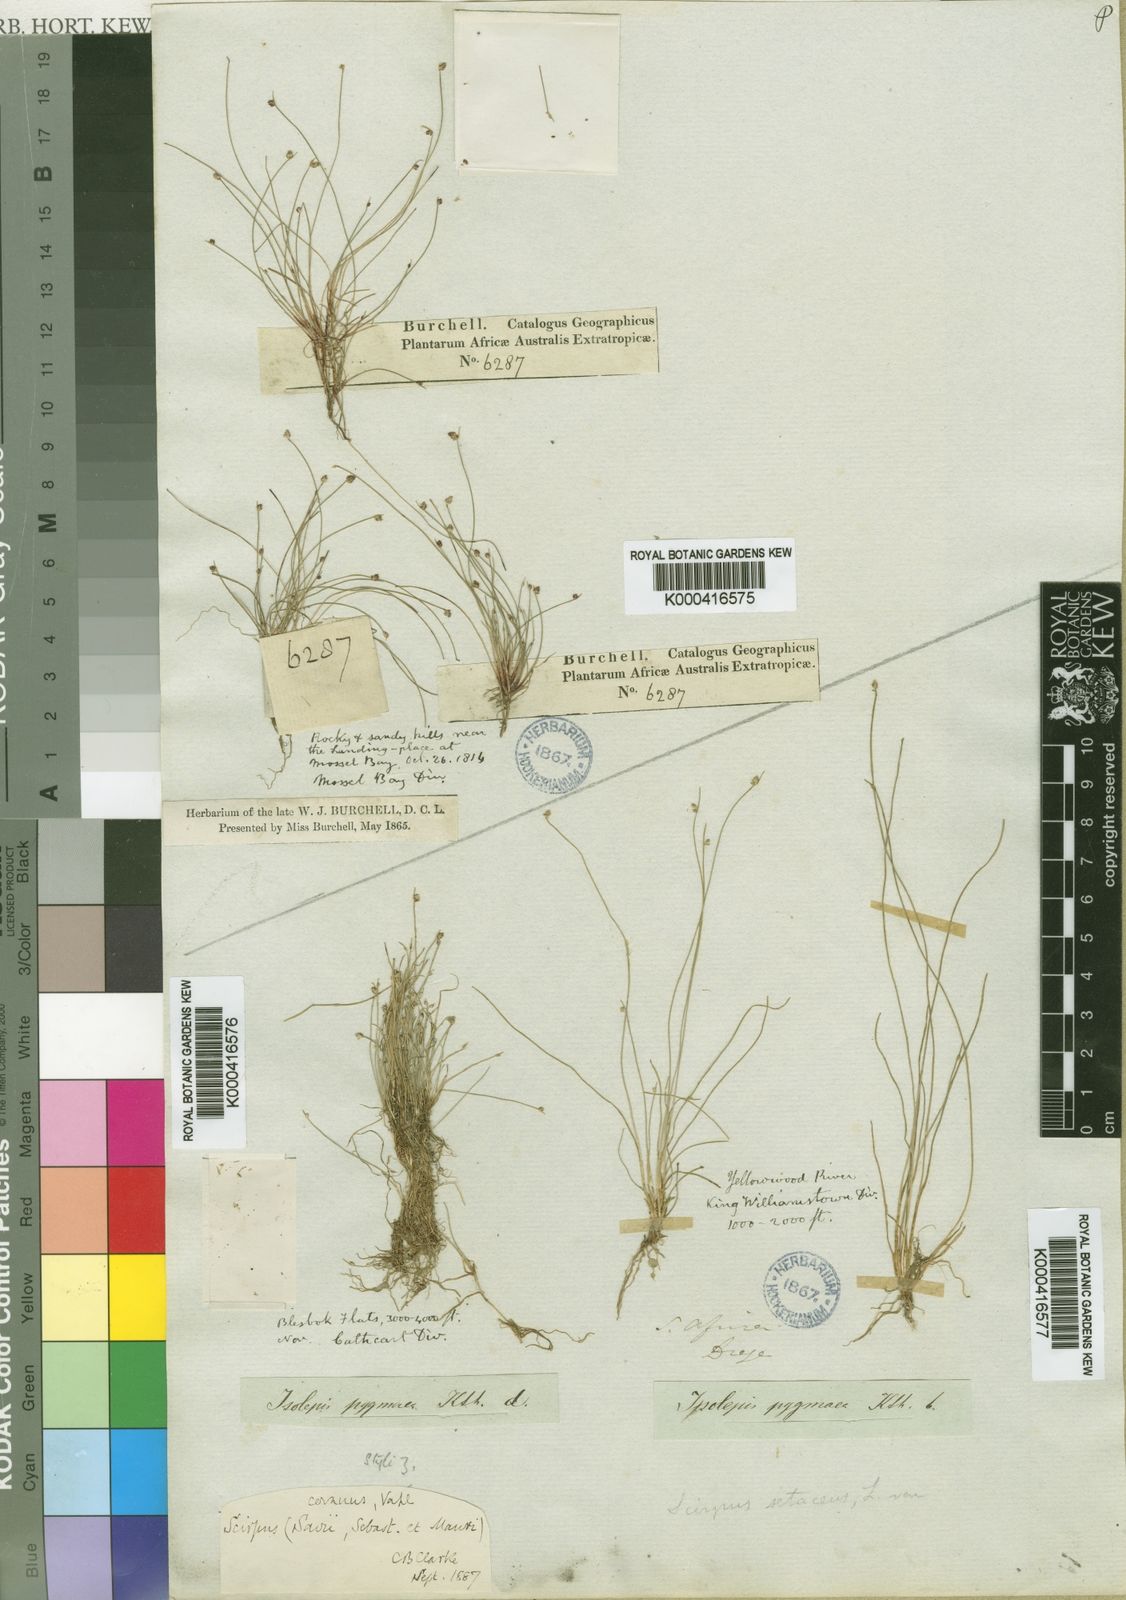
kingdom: Plantae
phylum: Tracheophyta
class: Liliopsida
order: Poales
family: Cyperaceae
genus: Isolepis
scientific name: Isolepis cernua
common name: Slender club-rush
